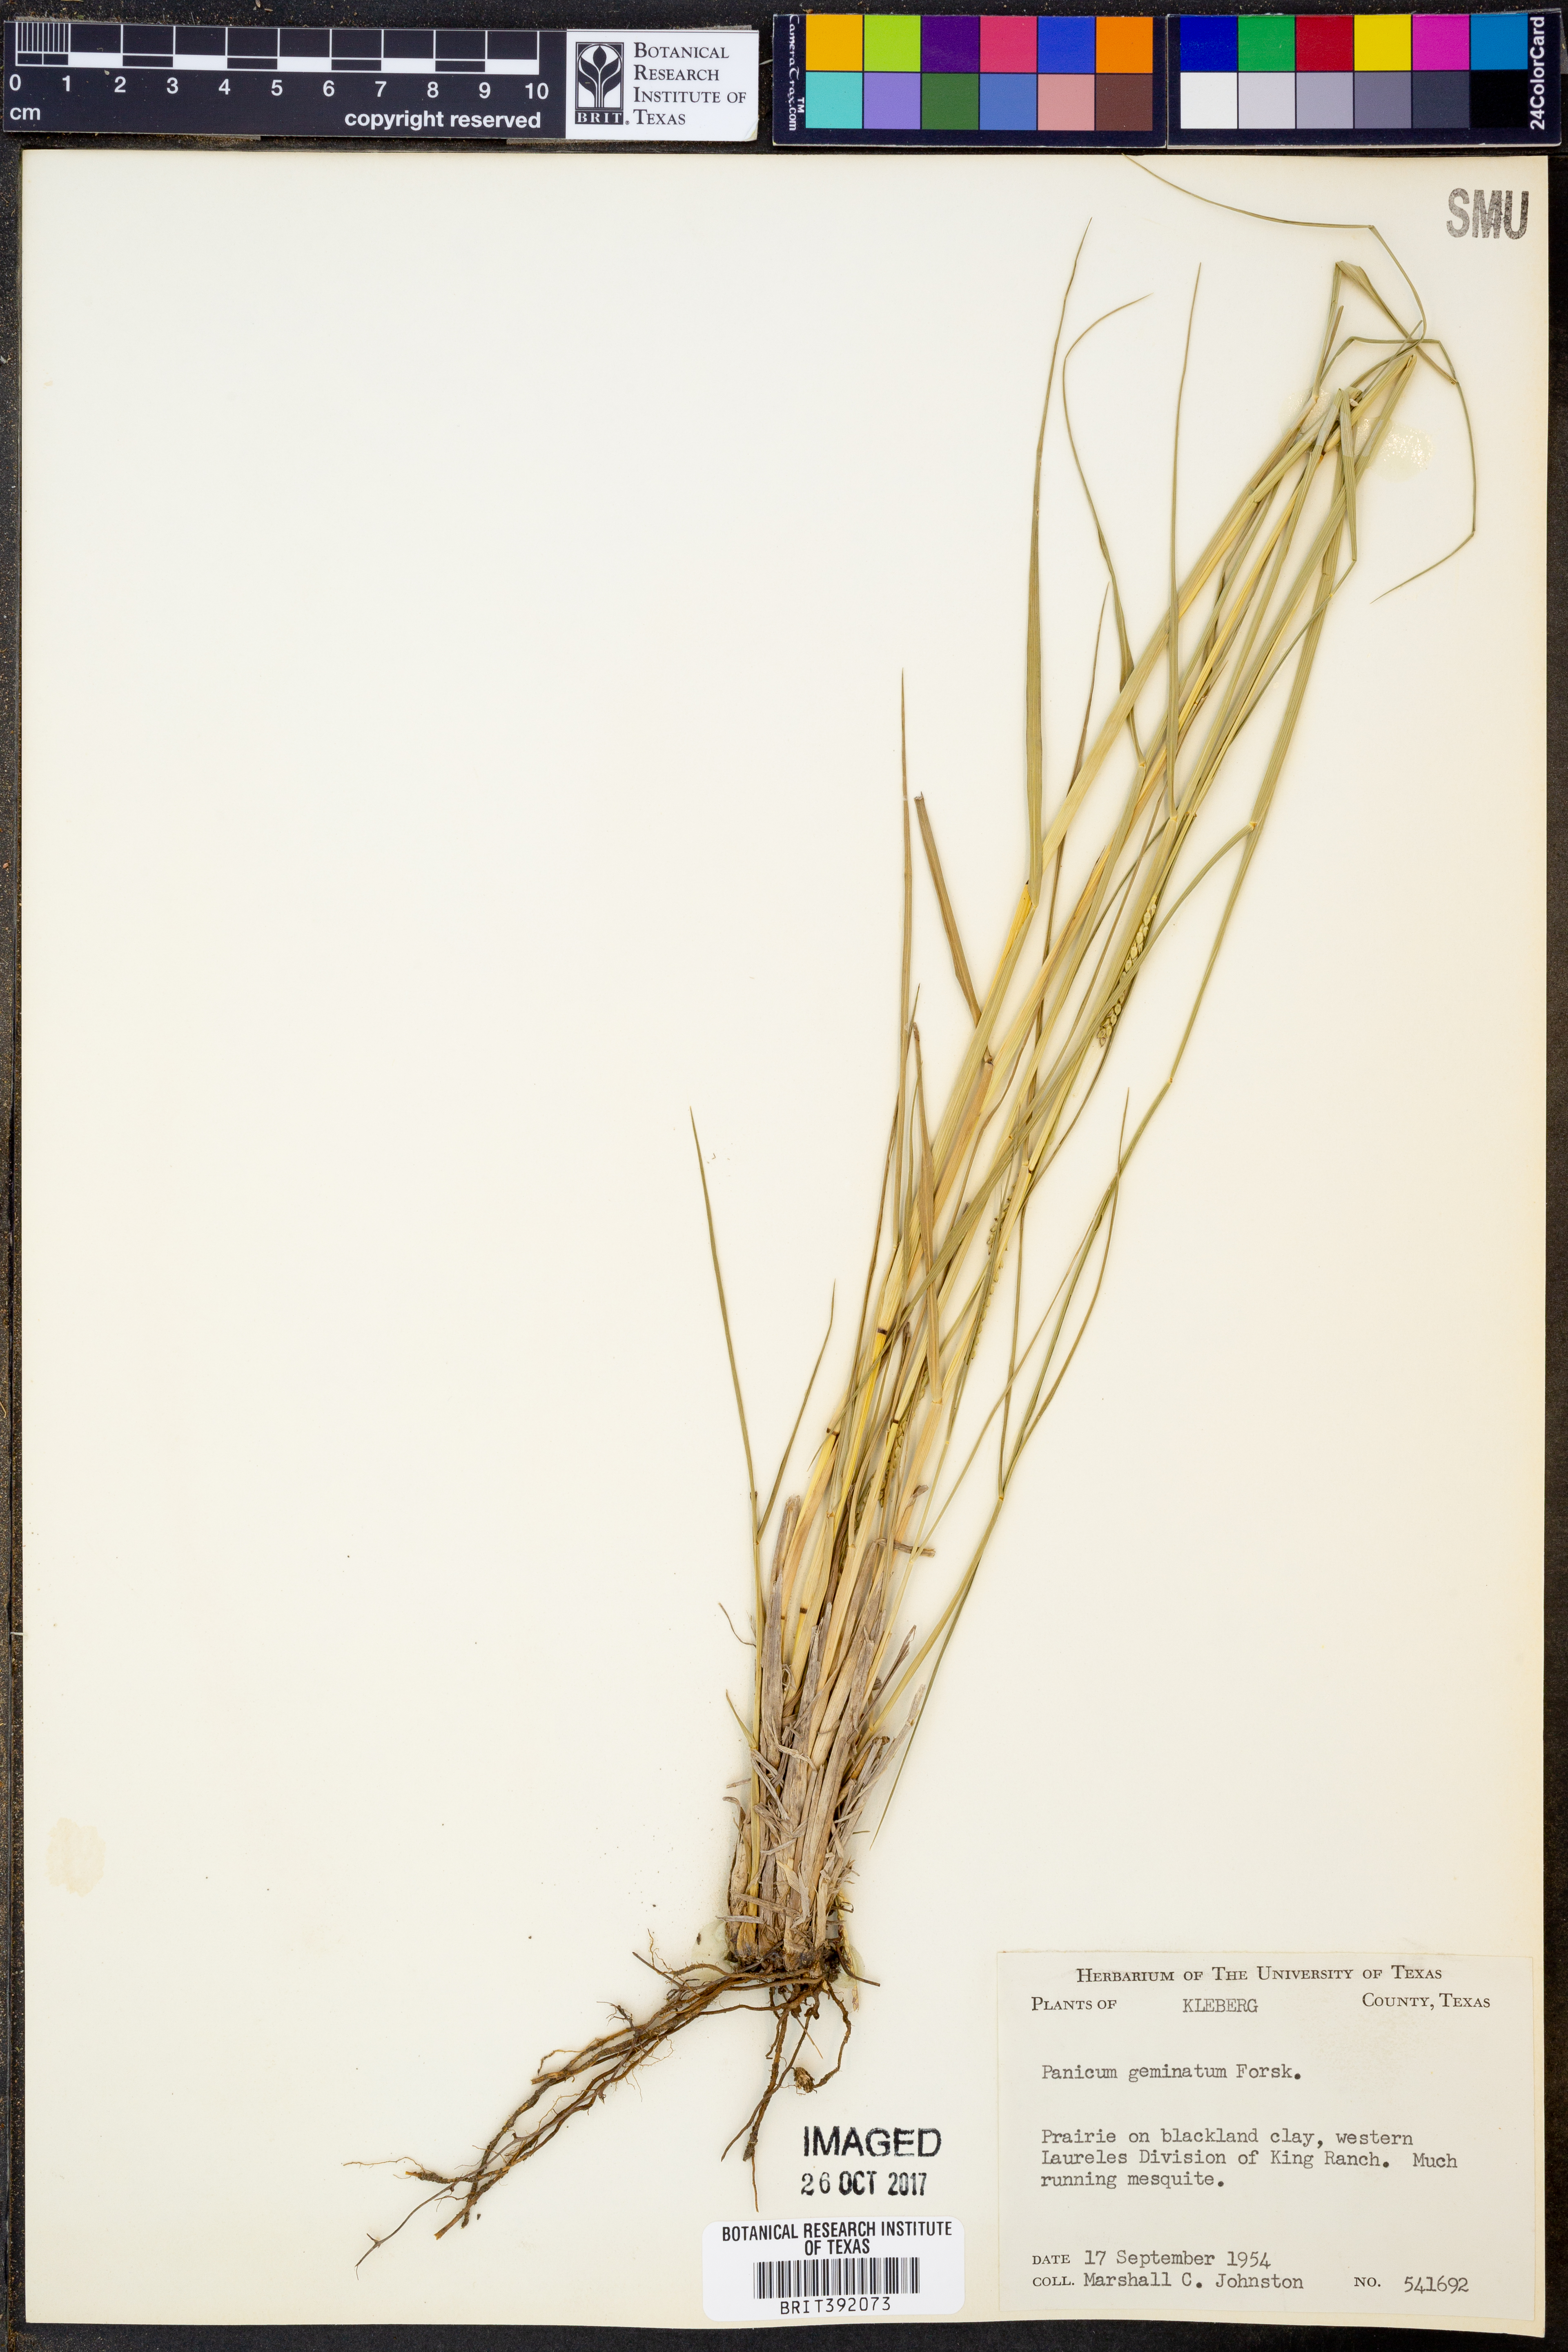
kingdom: Plantae
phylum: Tracheophyta
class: Liliopsida
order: Poales
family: Poaceae
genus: Setaria
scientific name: Setaria geminata
